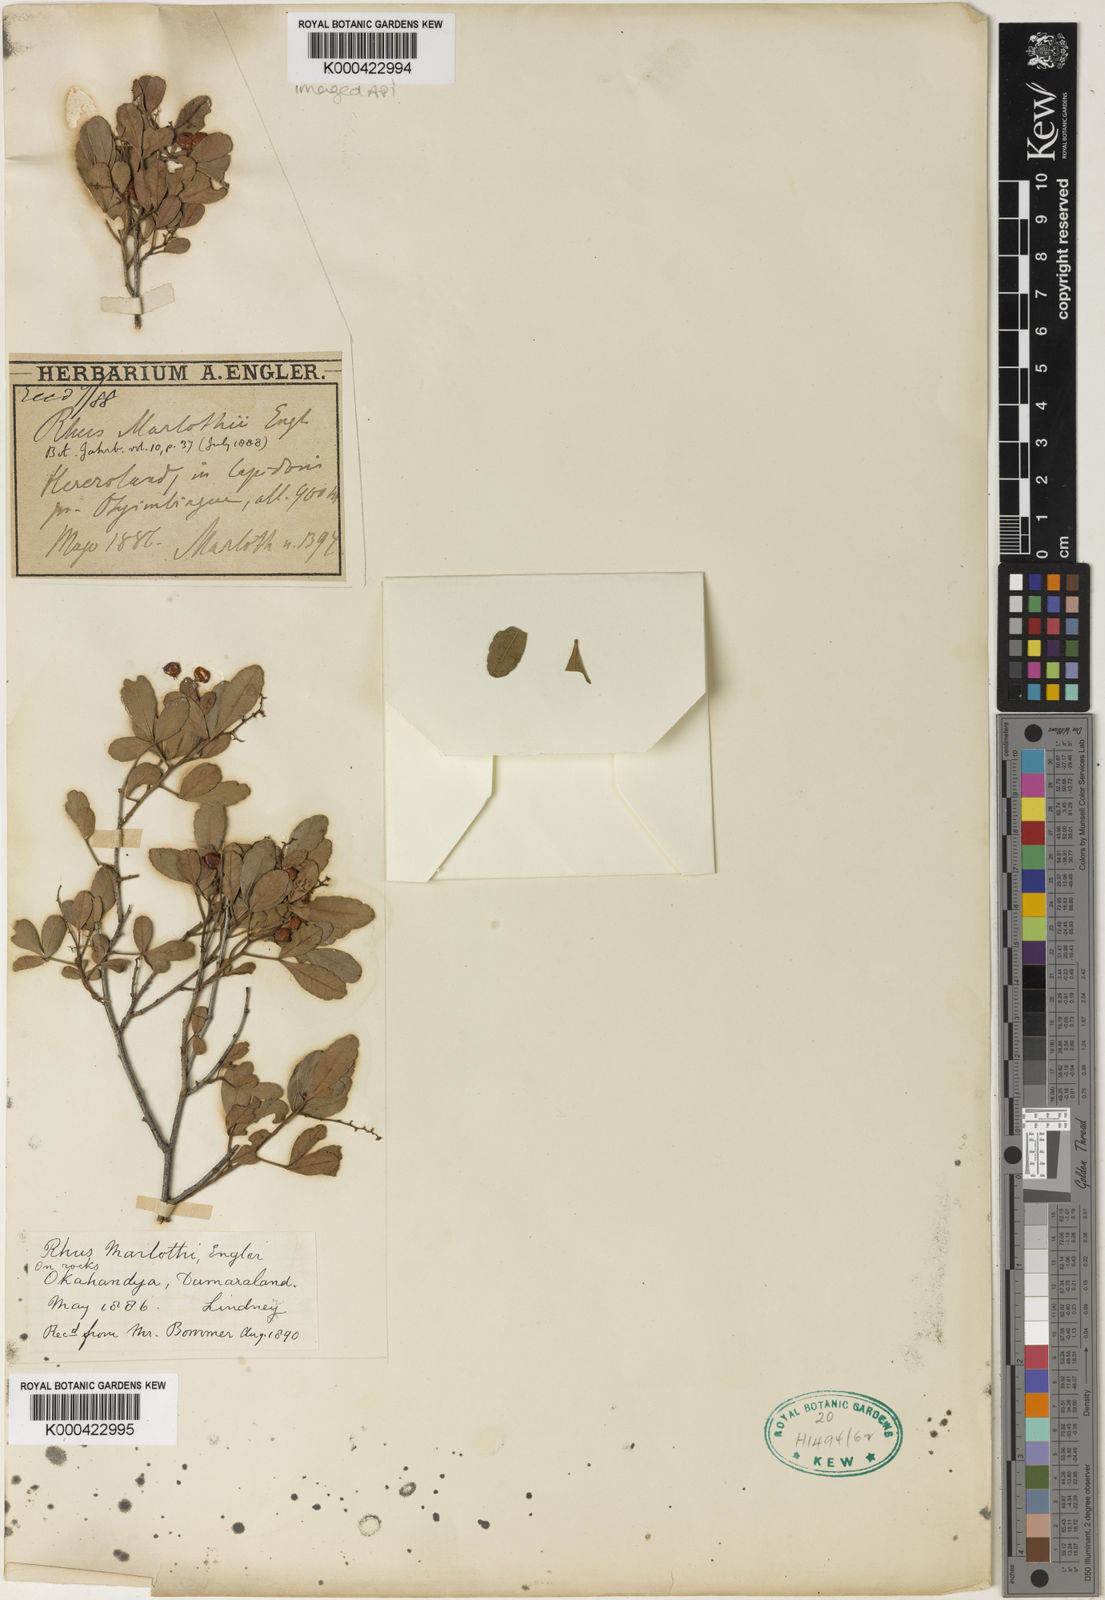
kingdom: Plantae
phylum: Tracheophyta
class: Magnoliopsida
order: Sapindales
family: Anacardiaceae
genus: Searsia
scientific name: Searsia marlothii
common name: Bitter karee
